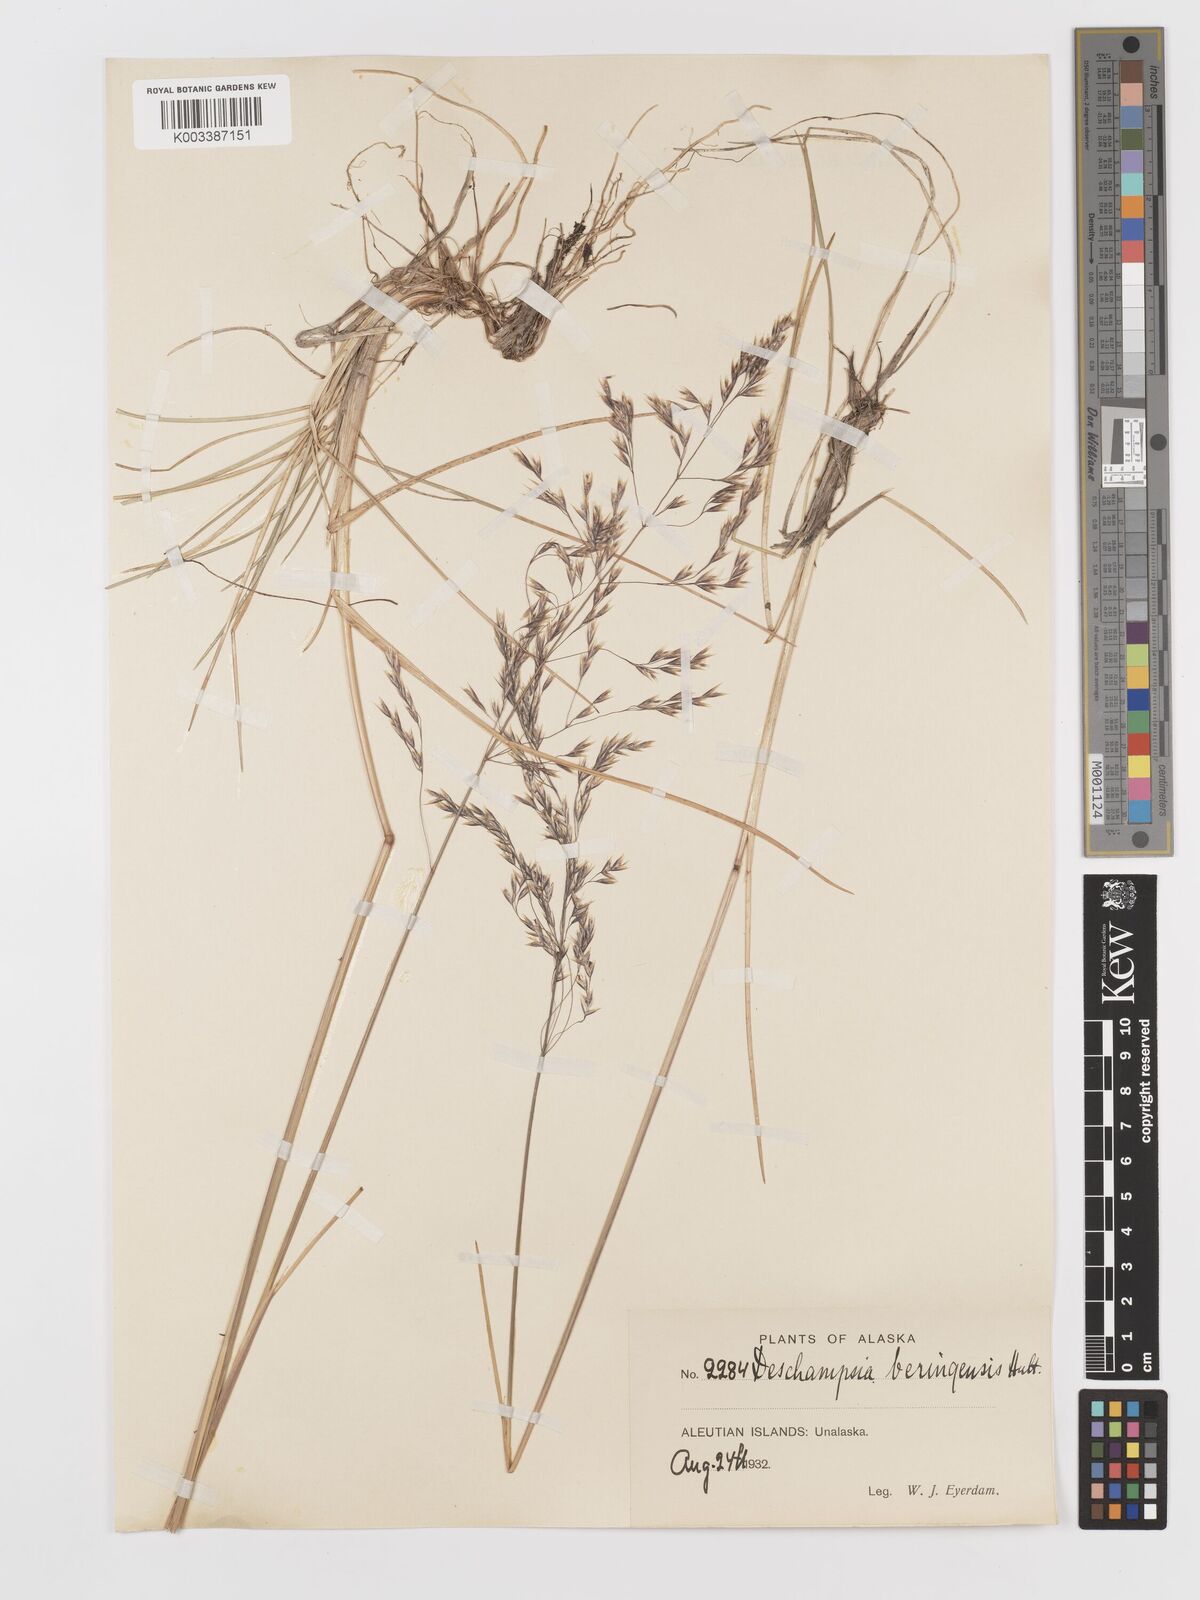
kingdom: Plantae
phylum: Tracheophyta
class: Liliopsida
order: Poales
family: Poaceae
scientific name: Poaceae
